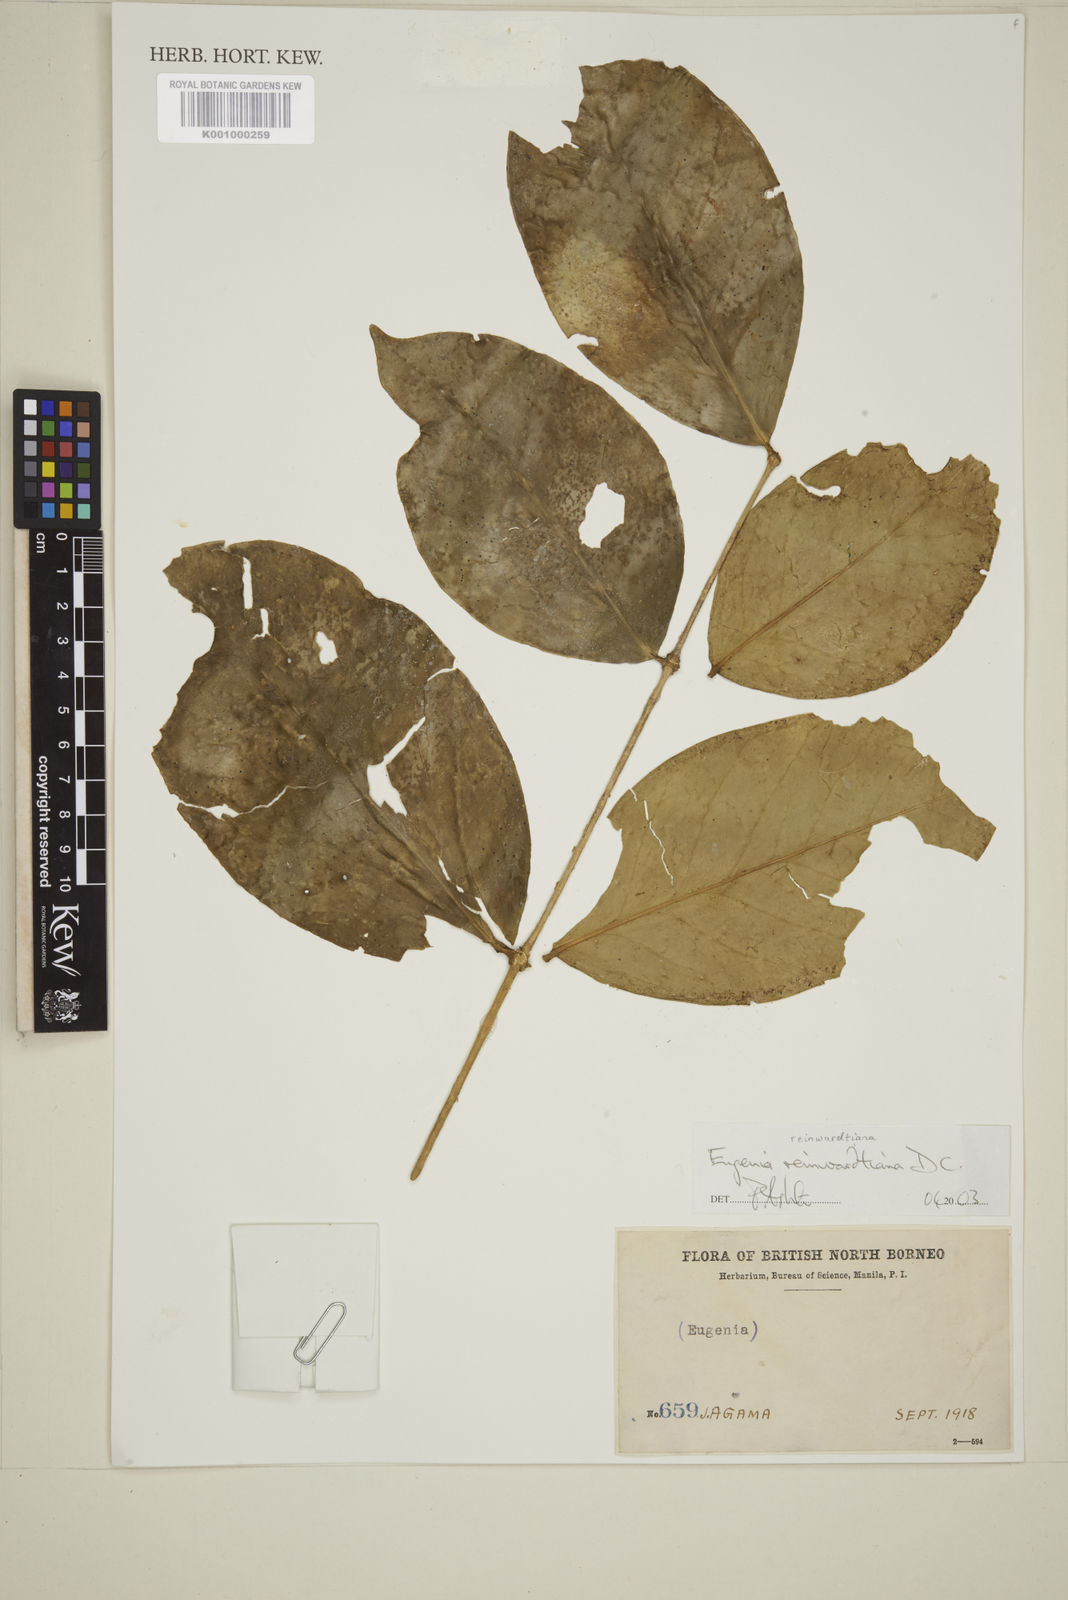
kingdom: Plantae
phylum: Tracheophyta
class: Magnoliopsida
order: Myrtales
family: Myrtaceae
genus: Eugenia
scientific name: Eugenia reinwardtiana
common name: Cedar bay-cherry
